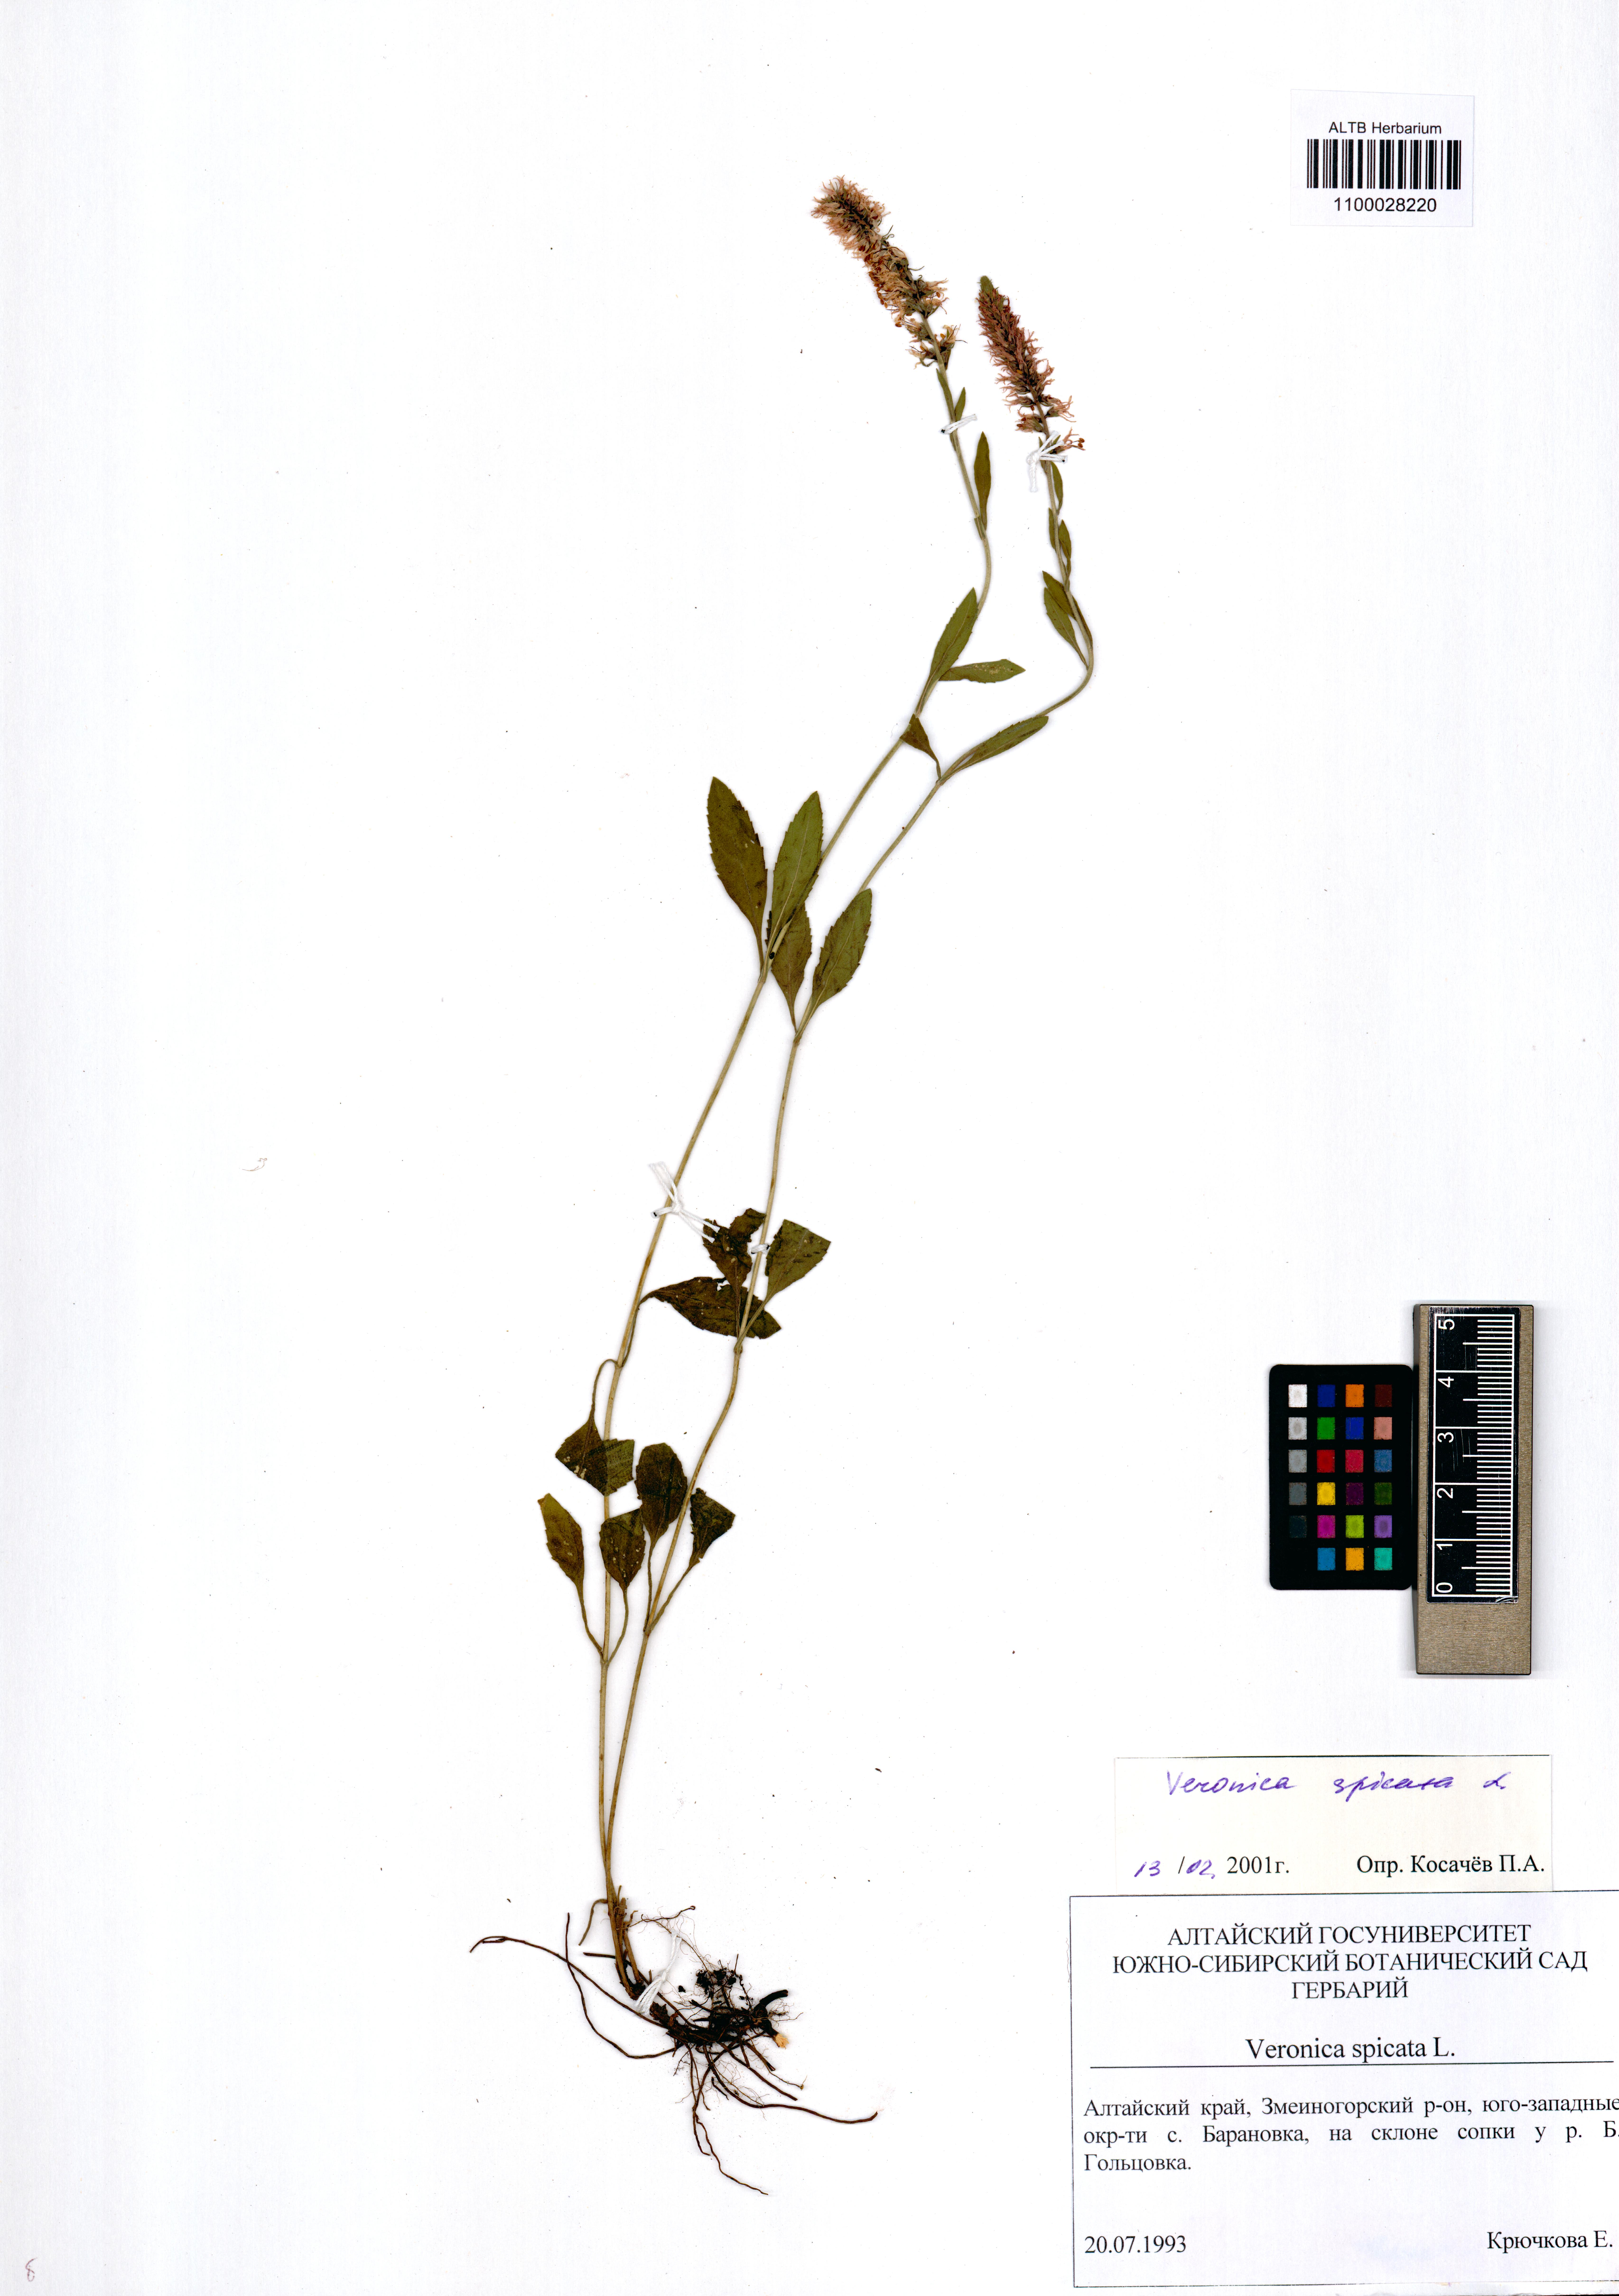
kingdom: Plantae
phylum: Tracheophyta
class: Magnoliopsida
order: Lamiales
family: Plantaginaceae
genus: Veronica
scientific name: Veronica spicata
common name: Spiked speedwell
